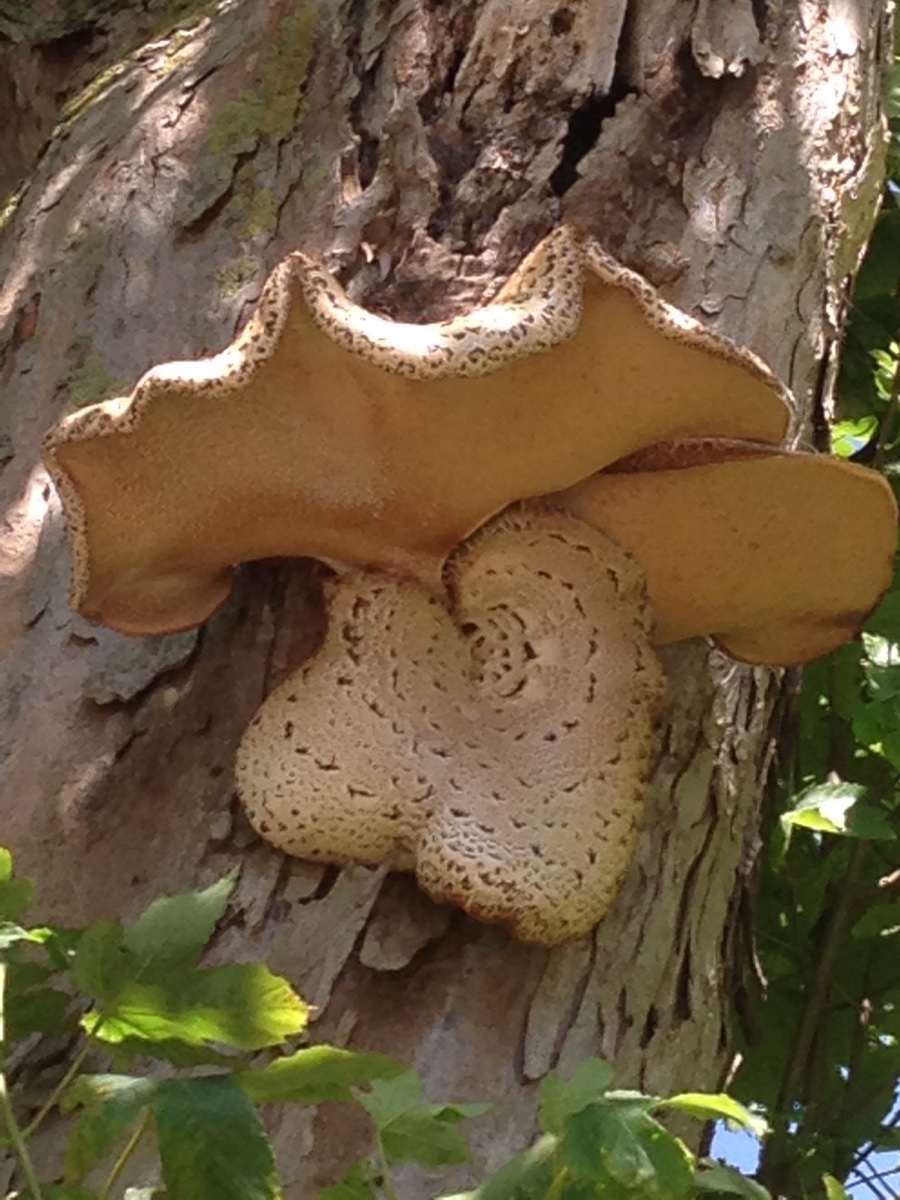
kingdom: Fungi
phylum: Basidiomycota
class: Agaricomycetes
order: Polyporales
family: Polyporaceae
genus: Cerioporus
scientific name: Cerioporus squamosus
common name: skællet stilkporesvamp
